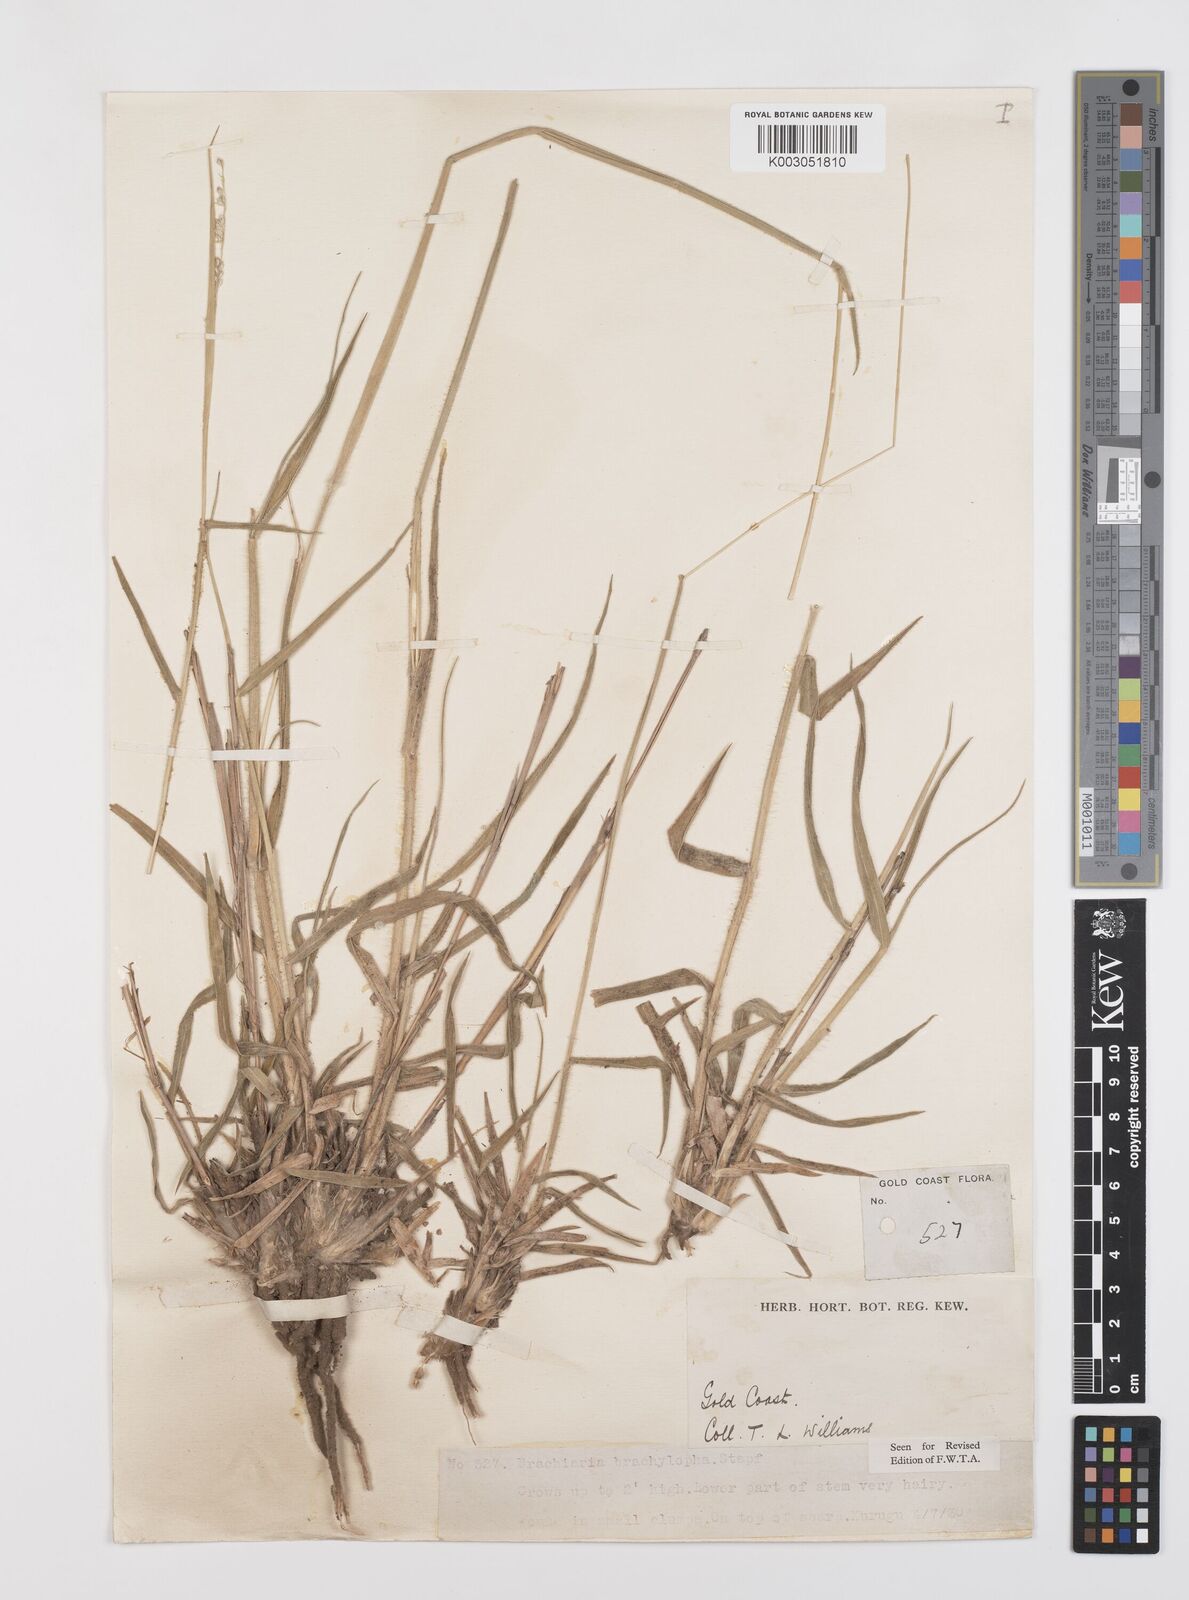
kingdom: Plantae
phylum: Tracheophyta
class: Liliopsida
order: Poales
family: Poaceae
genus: Urochloa
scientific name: Urochloa serrata
